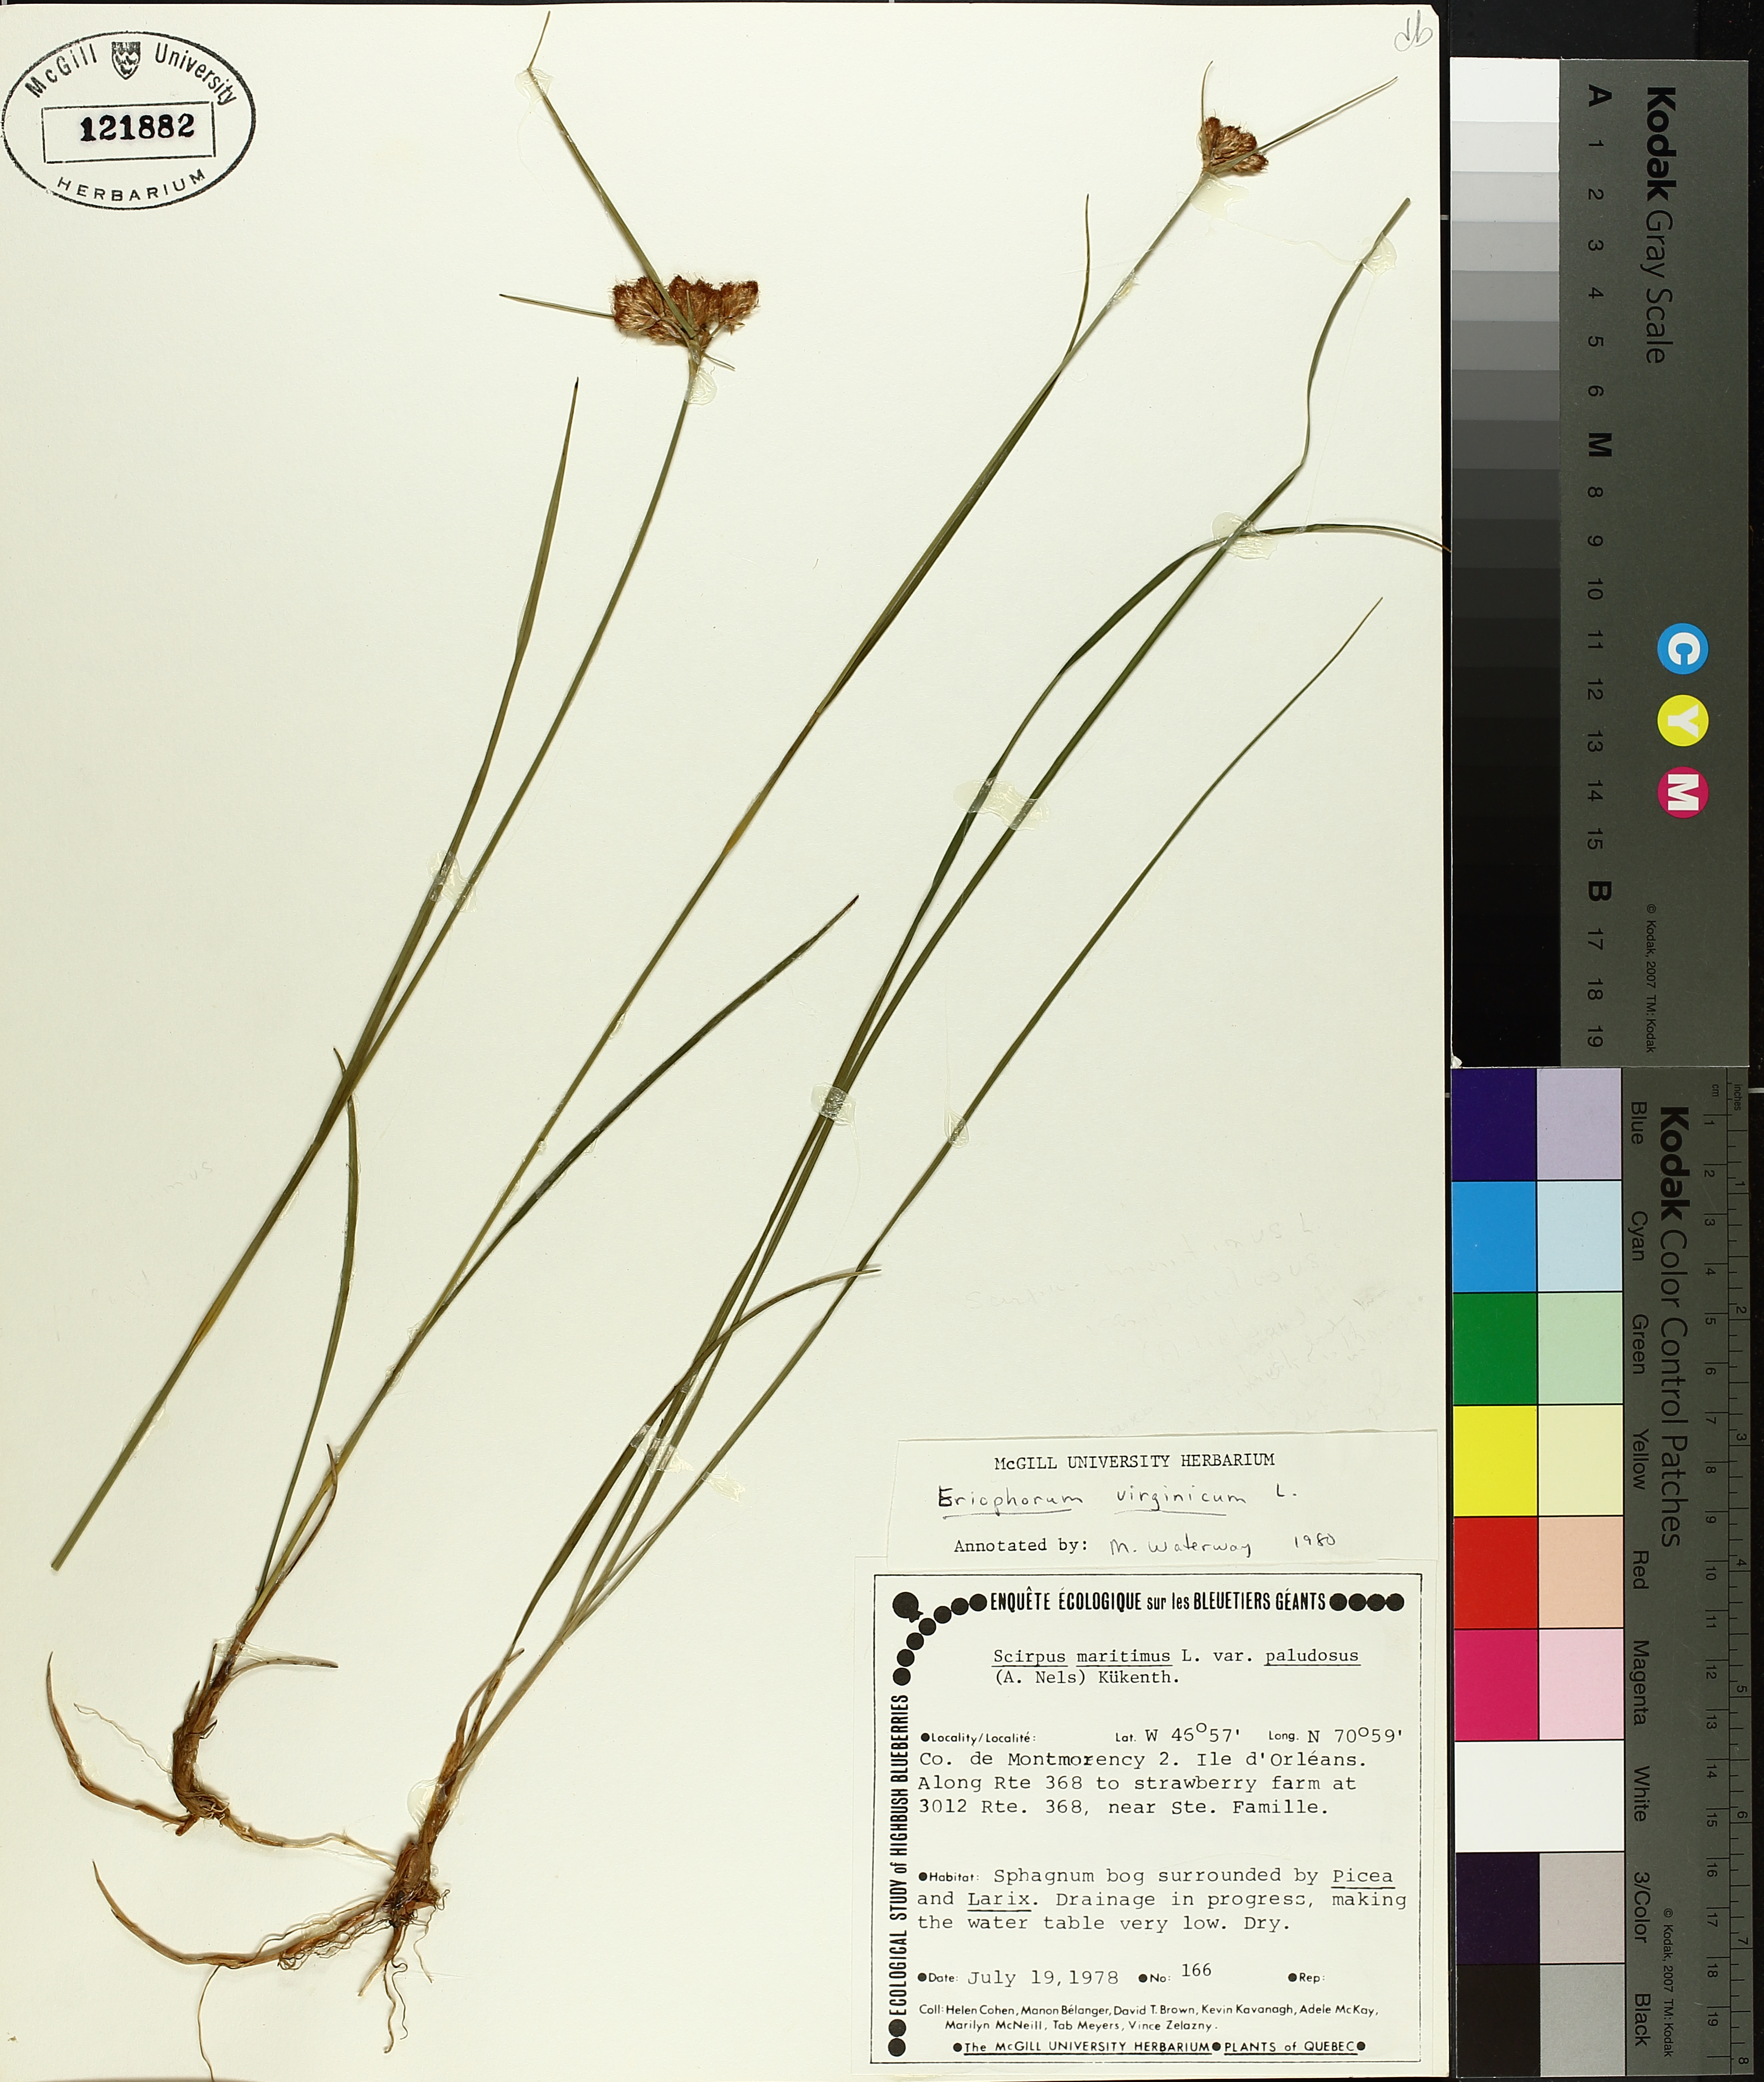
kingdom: Plantae
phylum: Tracheophyta
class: Liliopsida
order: Poales
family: Cyperaceae
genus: Eriophorum
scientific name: Eriophorum virginicum
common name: Tawny cottongrass
